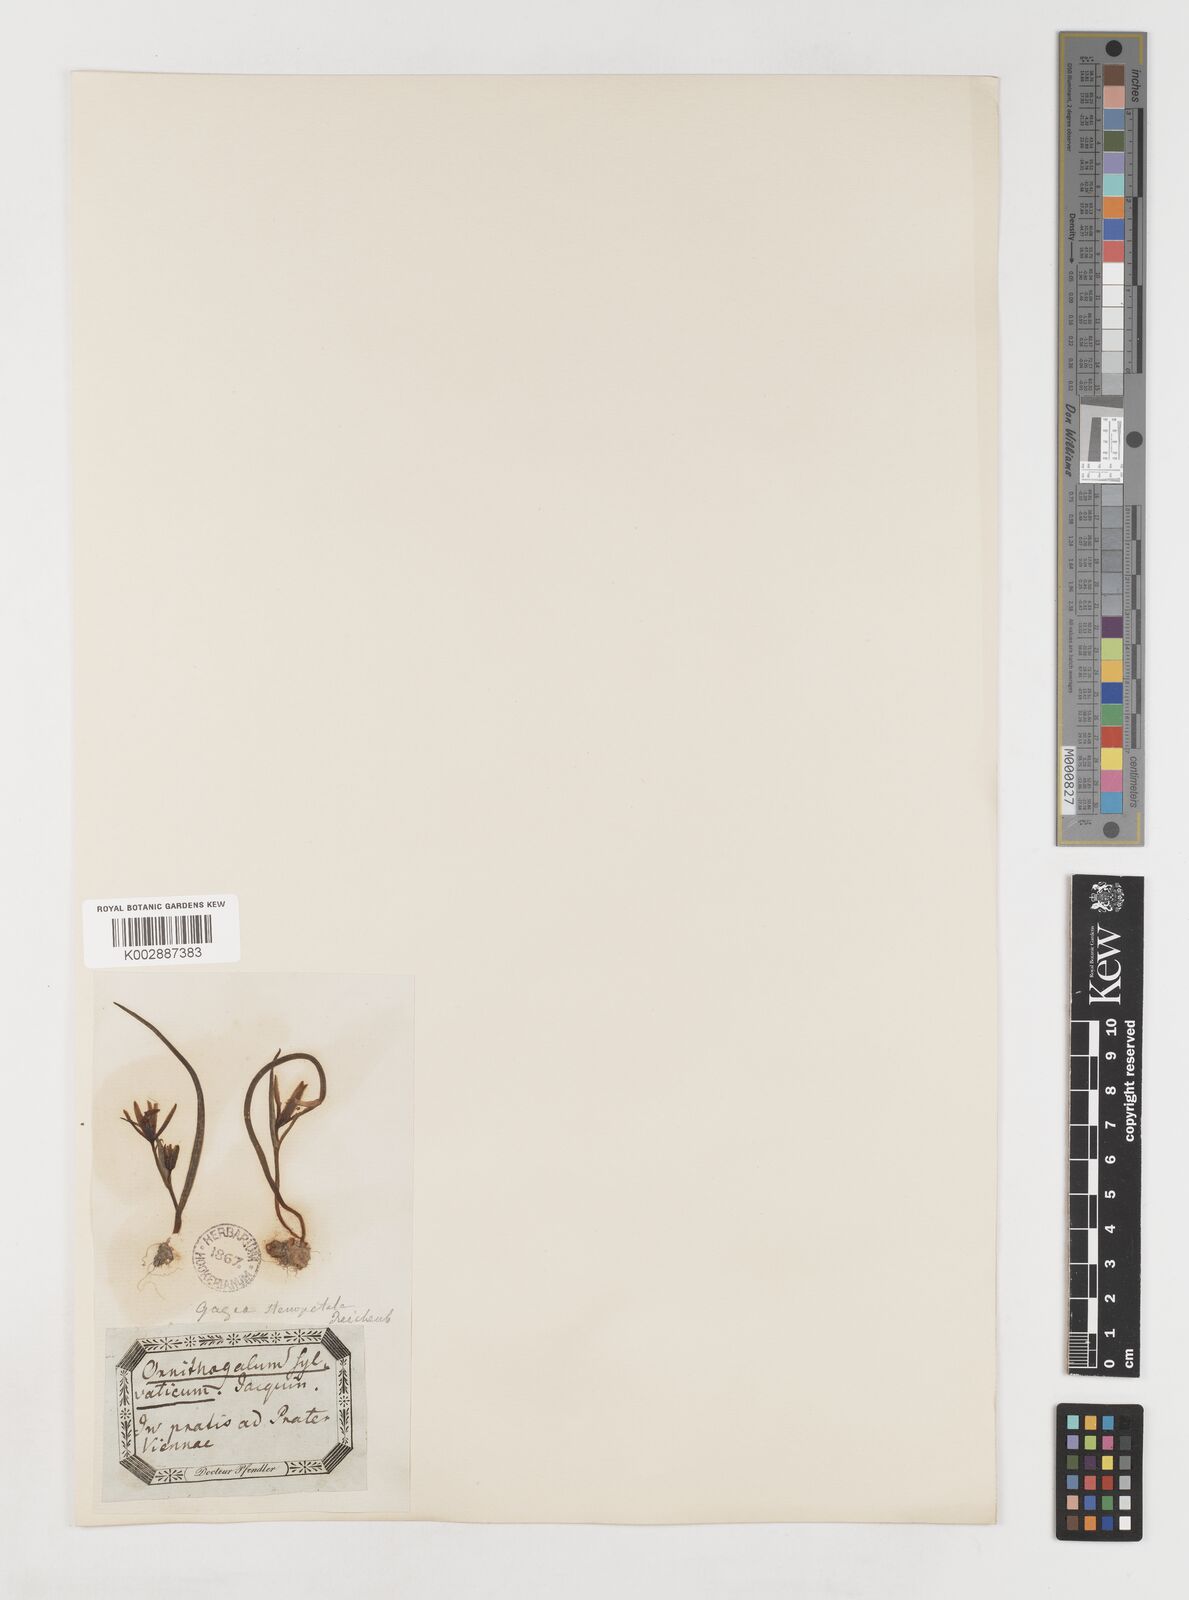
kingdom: Plantae
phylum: Tracheophyta
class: Liliopsida
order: Liliales
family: Liliaceae
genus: Gagea
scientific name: Gagea pratensis
